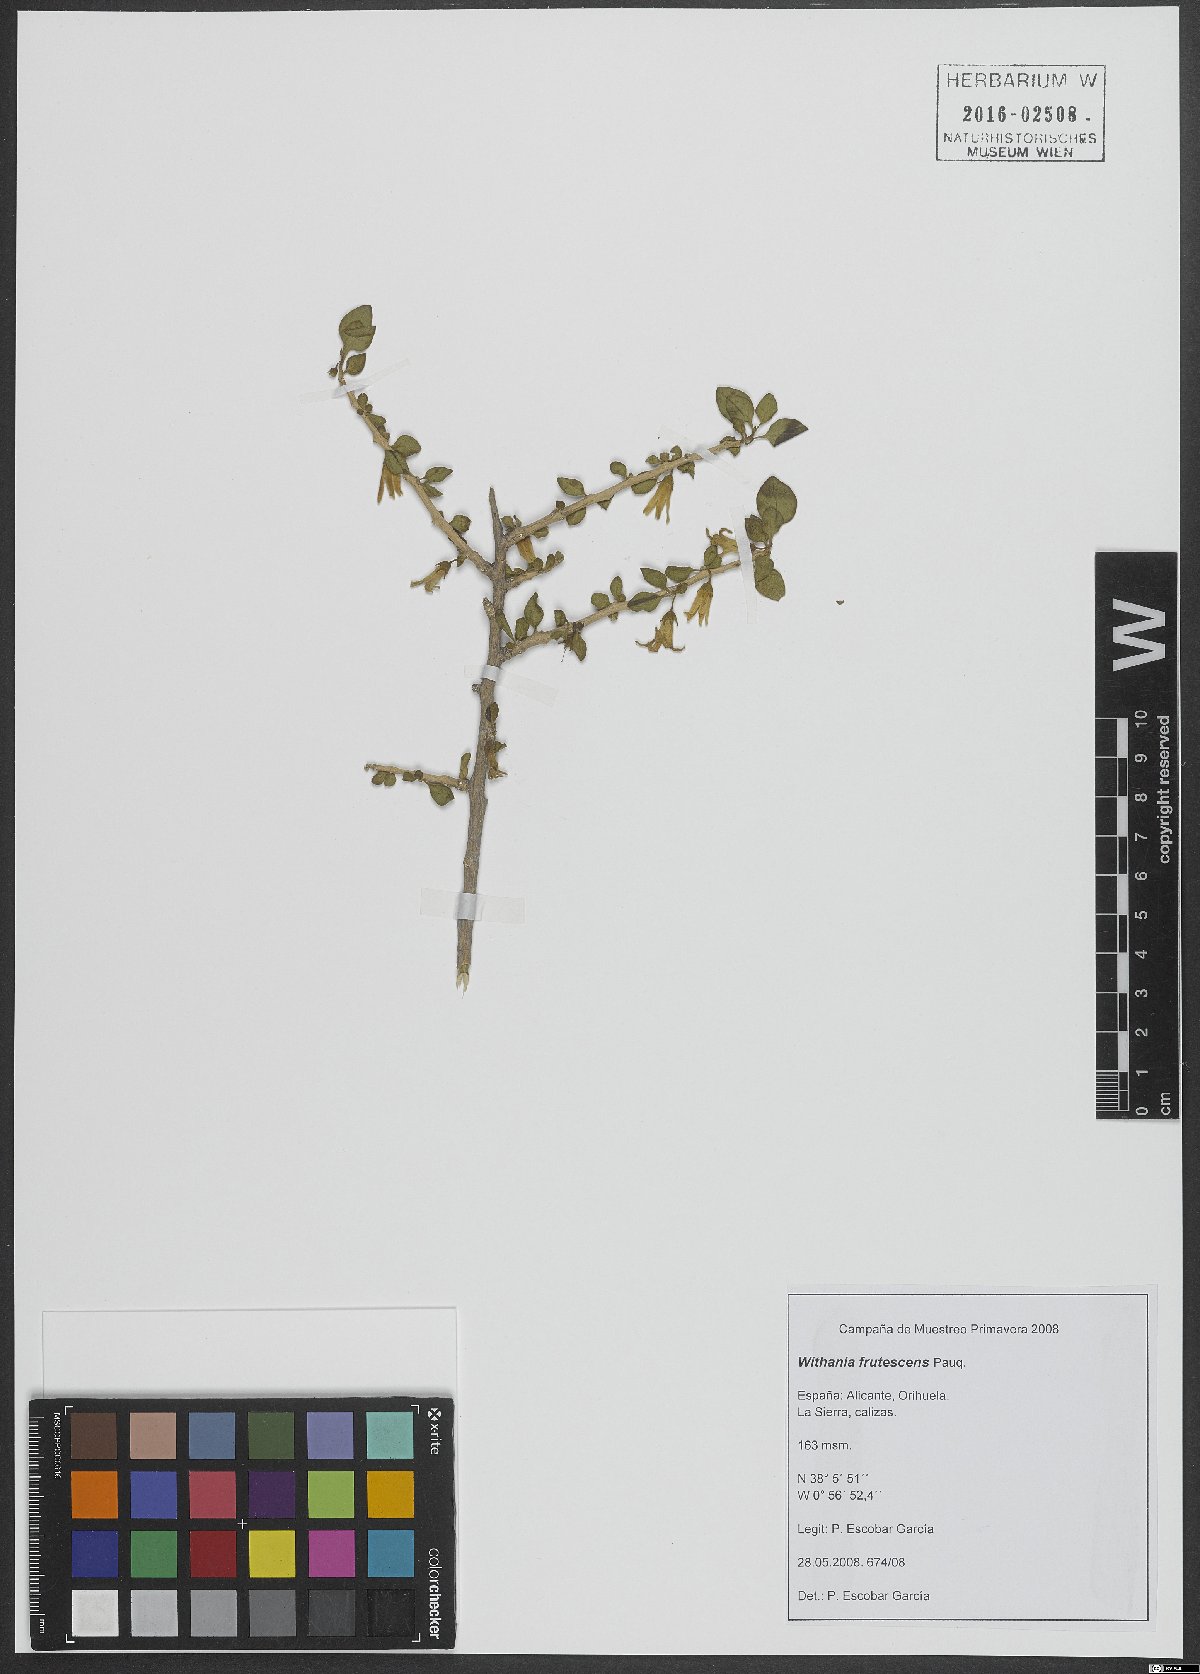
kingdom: Plantae
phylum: Tracheophyta
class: Magnoliopsida
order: Solanales
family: Solanaceae
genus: Withania
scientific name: Withania frutescens
